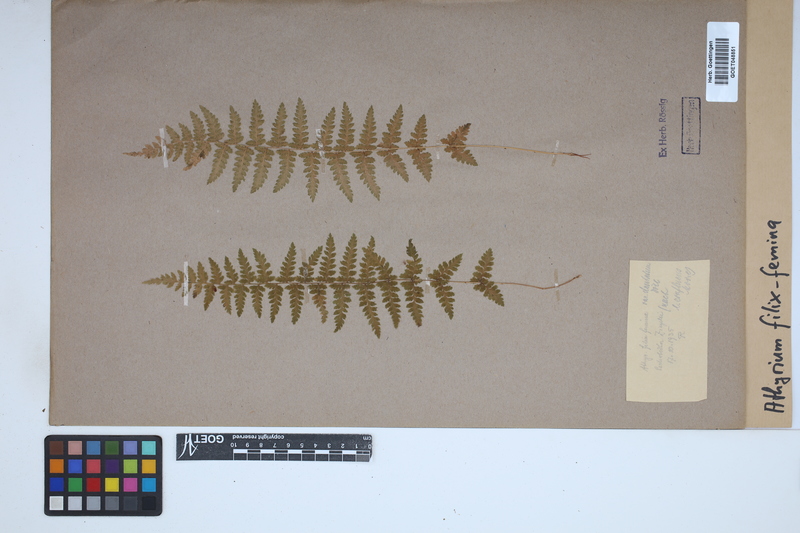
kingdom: Plantae
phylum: Tracheophyta
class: Polypodiopsida
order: Polypodiales
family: Athyriaceae
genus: Athyrium
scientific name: Athyrium filix-femina
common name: Lady fern
